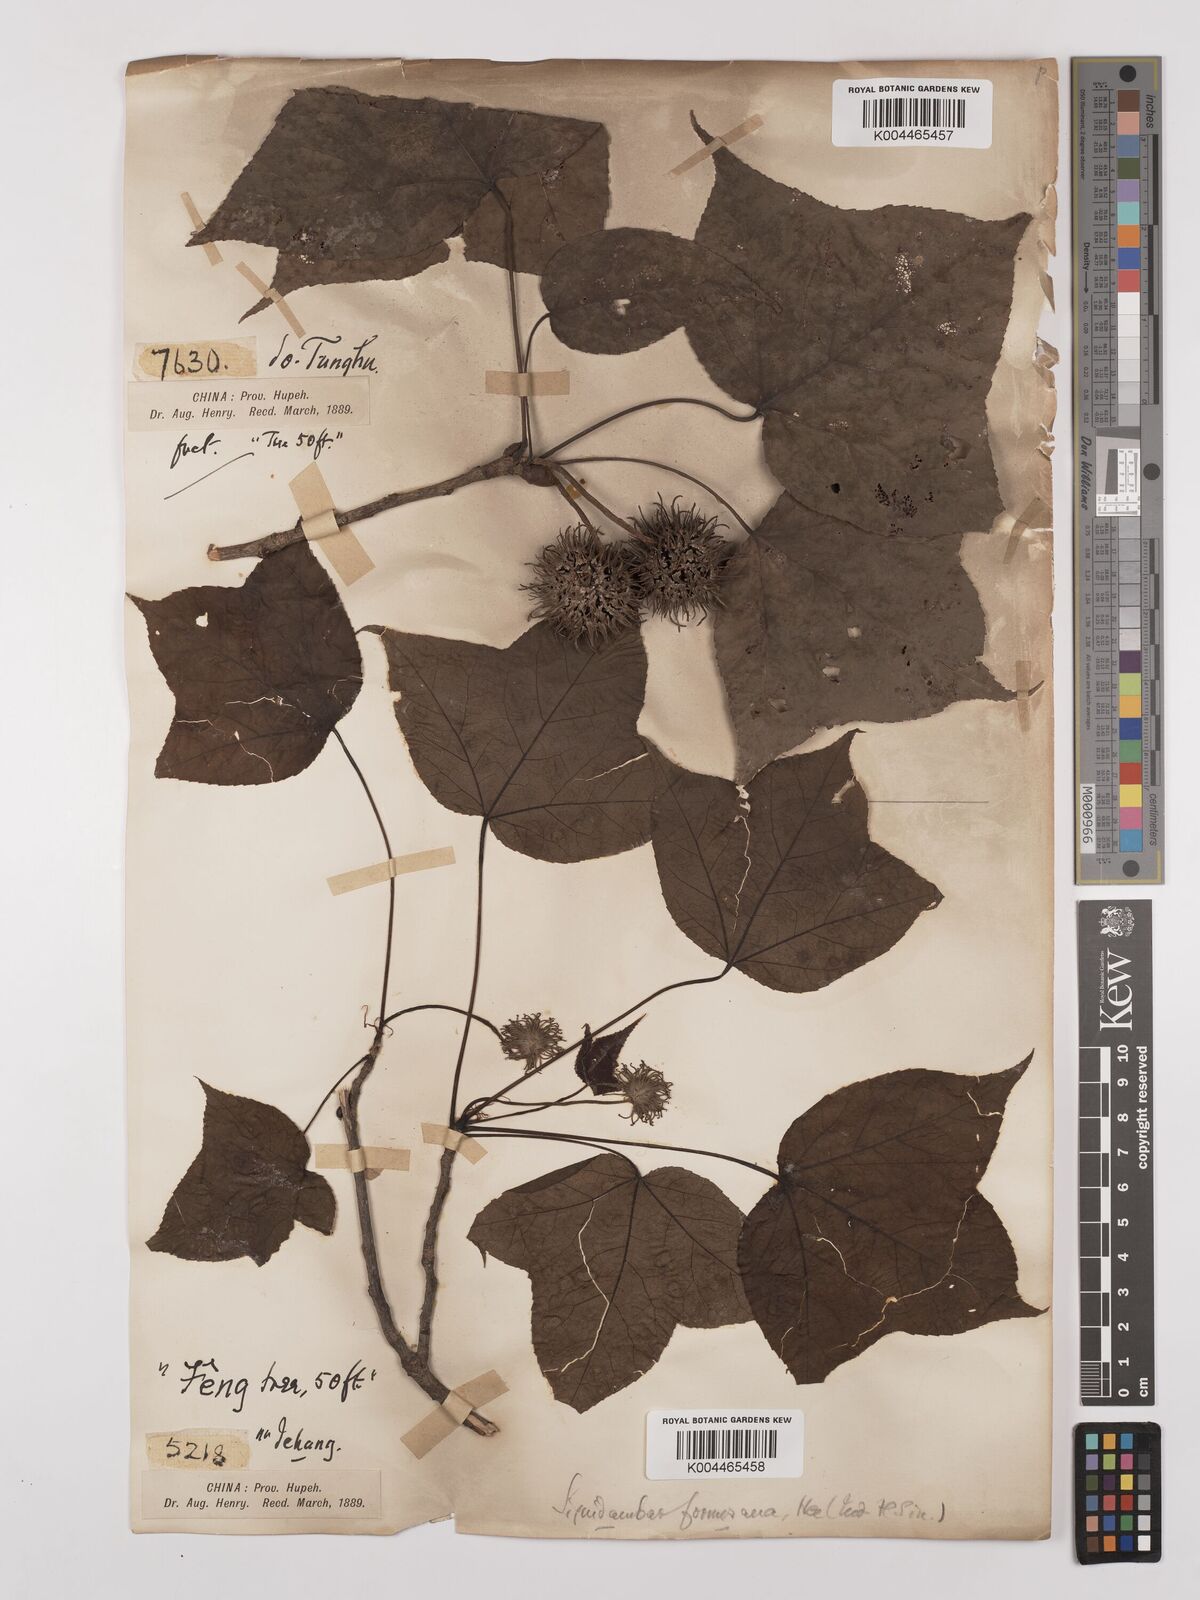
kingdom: Plantae
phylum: Tracheophyta
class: Magnoliopsida
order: Saxifragales
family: Altingiaceae
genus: Liquidambar
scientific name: Liquidambar formosana
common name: Chinese sweet gum
